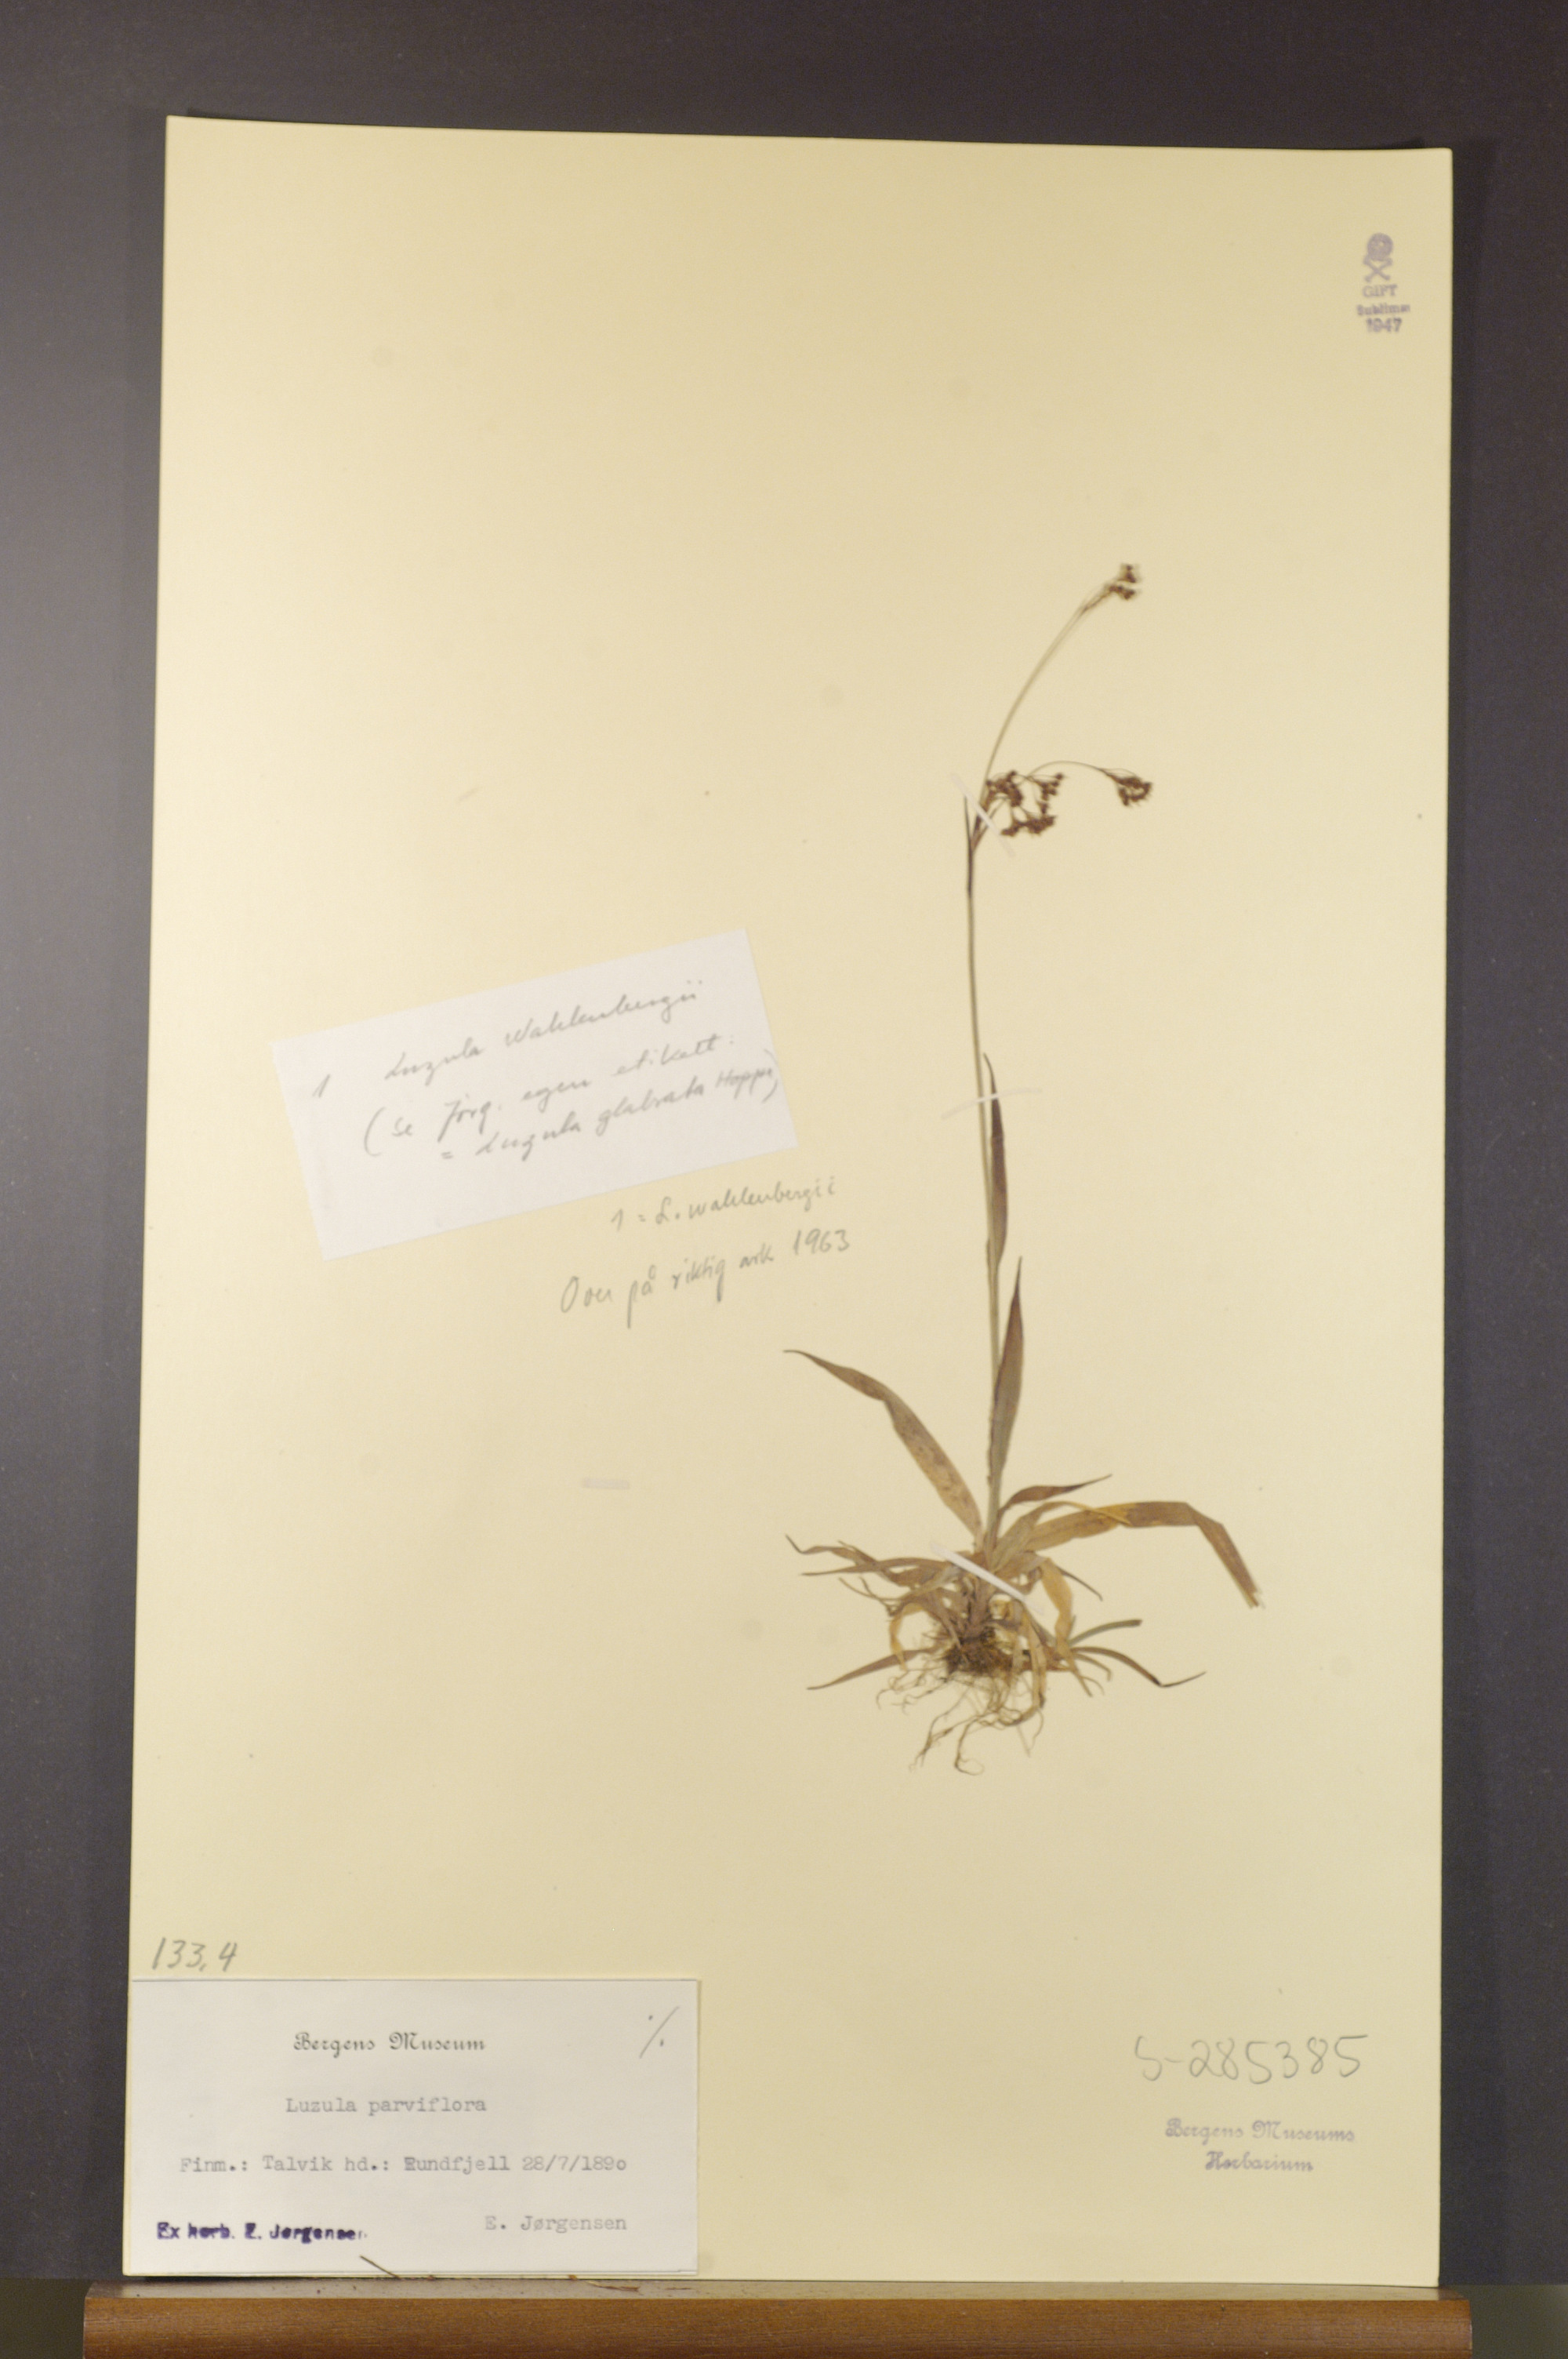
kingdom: Plantae
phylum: Tracheophyta
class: Liliopsida
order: Poales
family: Juncaceae
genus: Luzula
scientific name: Luzula parviflora
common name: Millet woodrush
